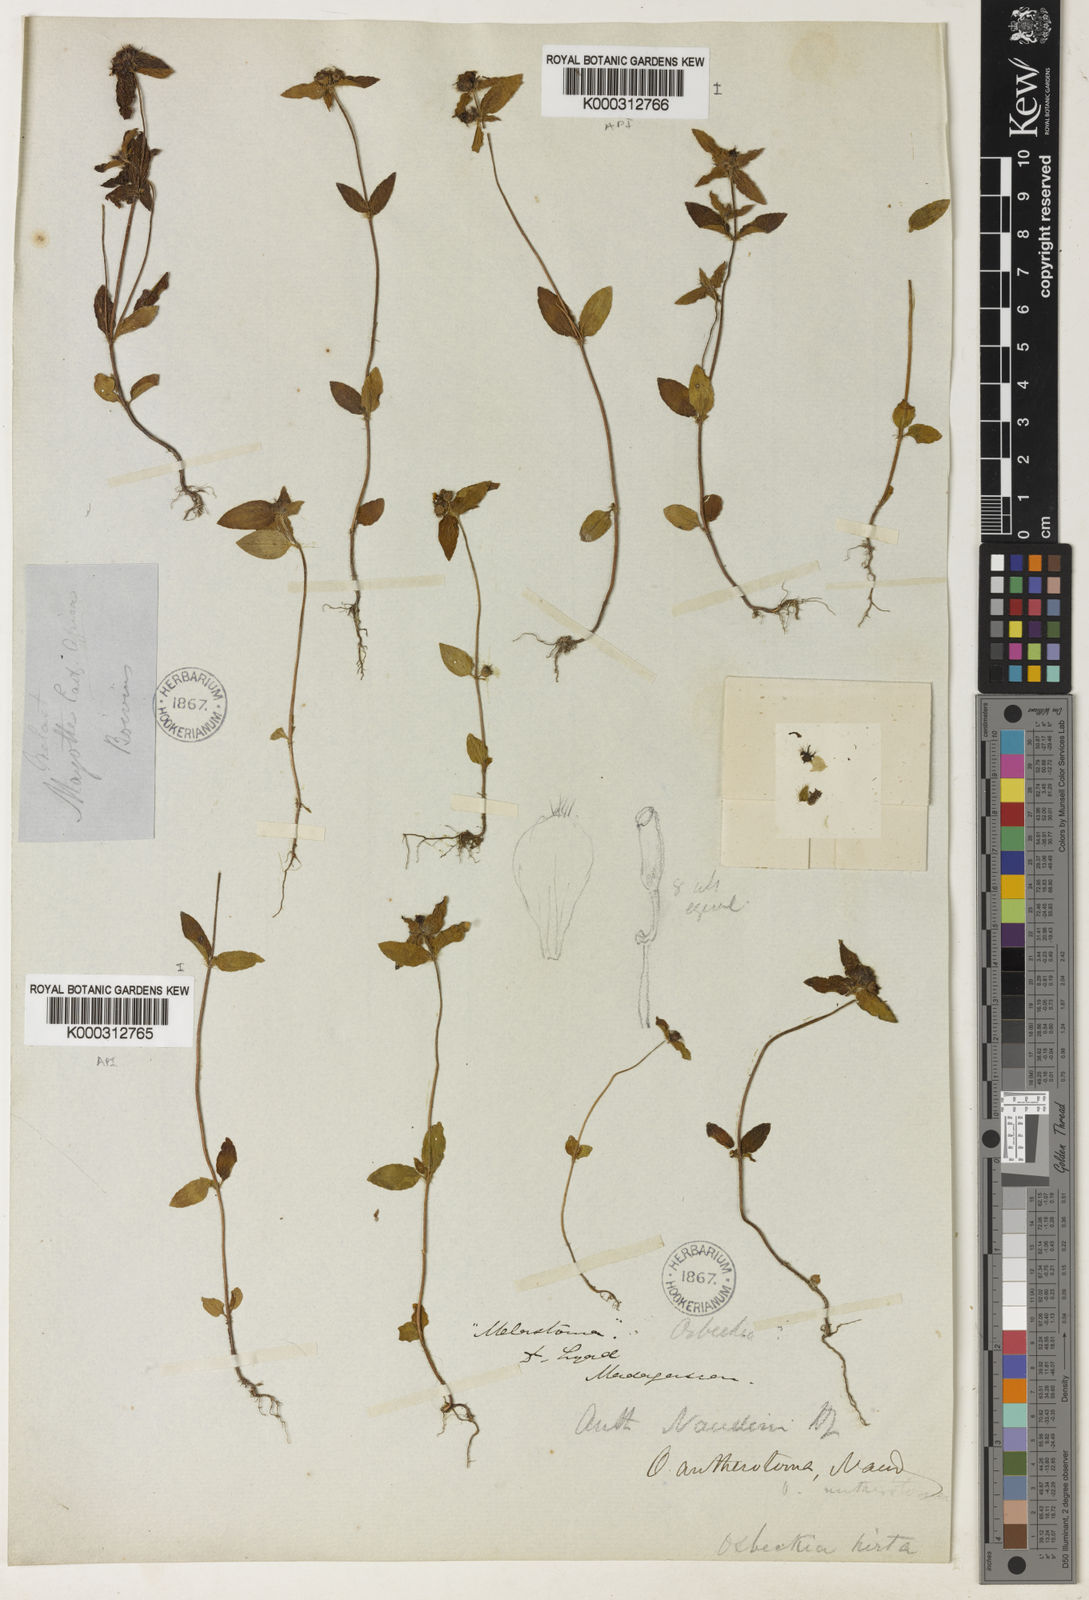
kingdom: Plantae
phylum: Tracheophyta
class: Magnoliopsida
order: Myrtales
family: Melastomataceae
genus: Antherotoma
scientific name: Antherotoma naudinii
